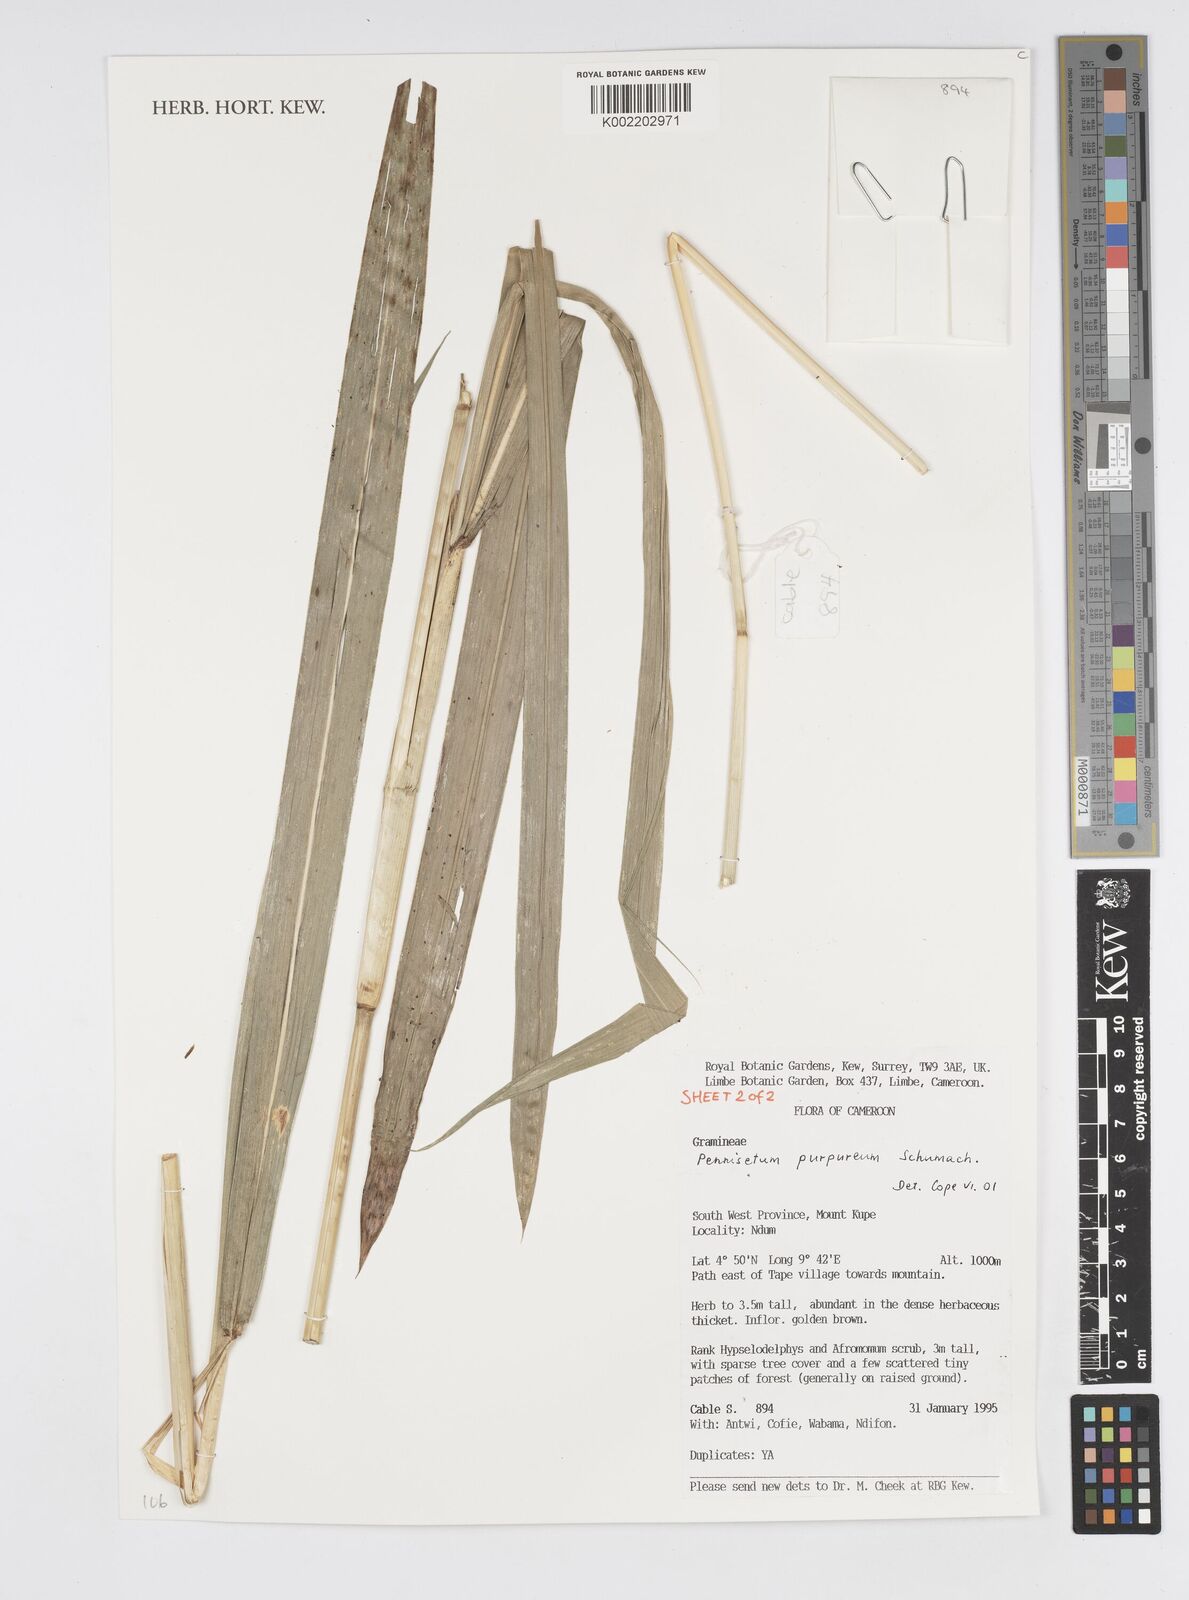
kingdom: Plantae
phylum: Tracheophyta
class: Liliopsida
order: Poales
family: Poaceae
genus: Cenchrus
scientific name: Cenchrus purpureus
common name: Elephant grass
